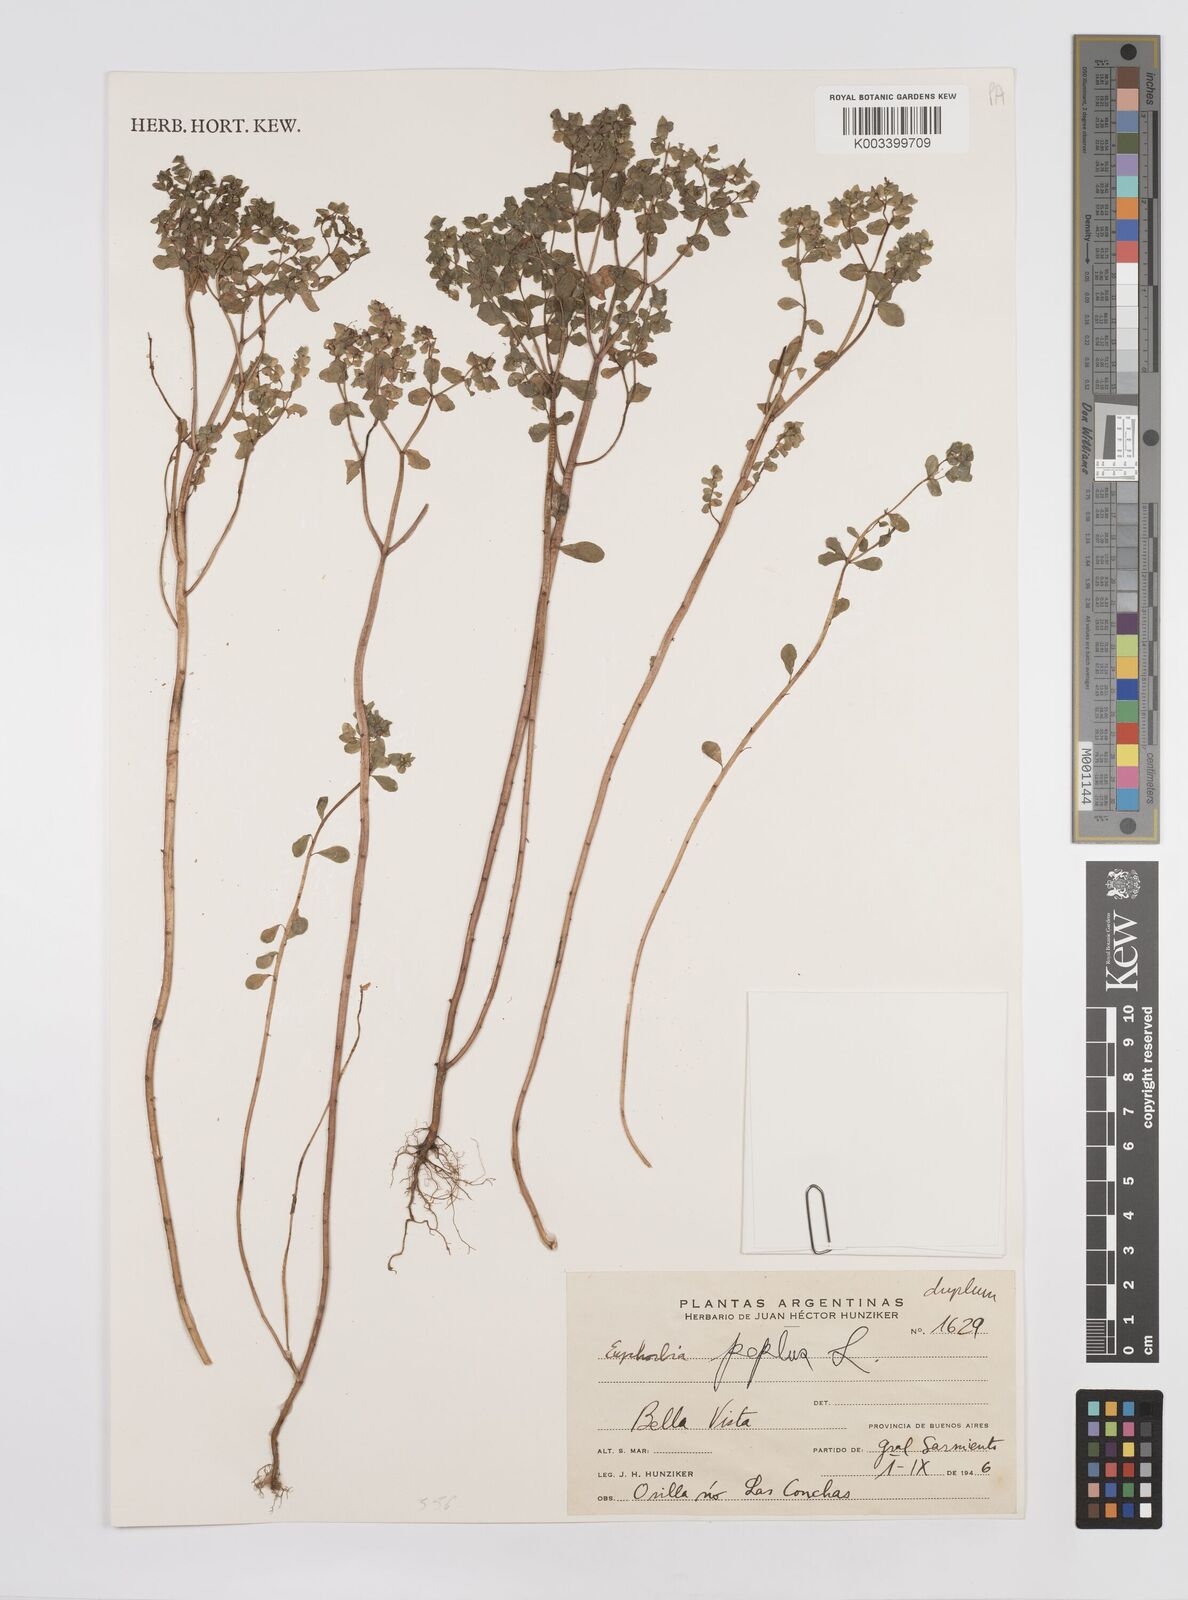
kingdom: Plantae
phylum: Tracheophyta
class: Magnoliopsida
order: Malpighiales
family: Euphorbiaceae
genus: Euphorbia
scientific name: Euphorbia peplus
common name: Petty spurge
